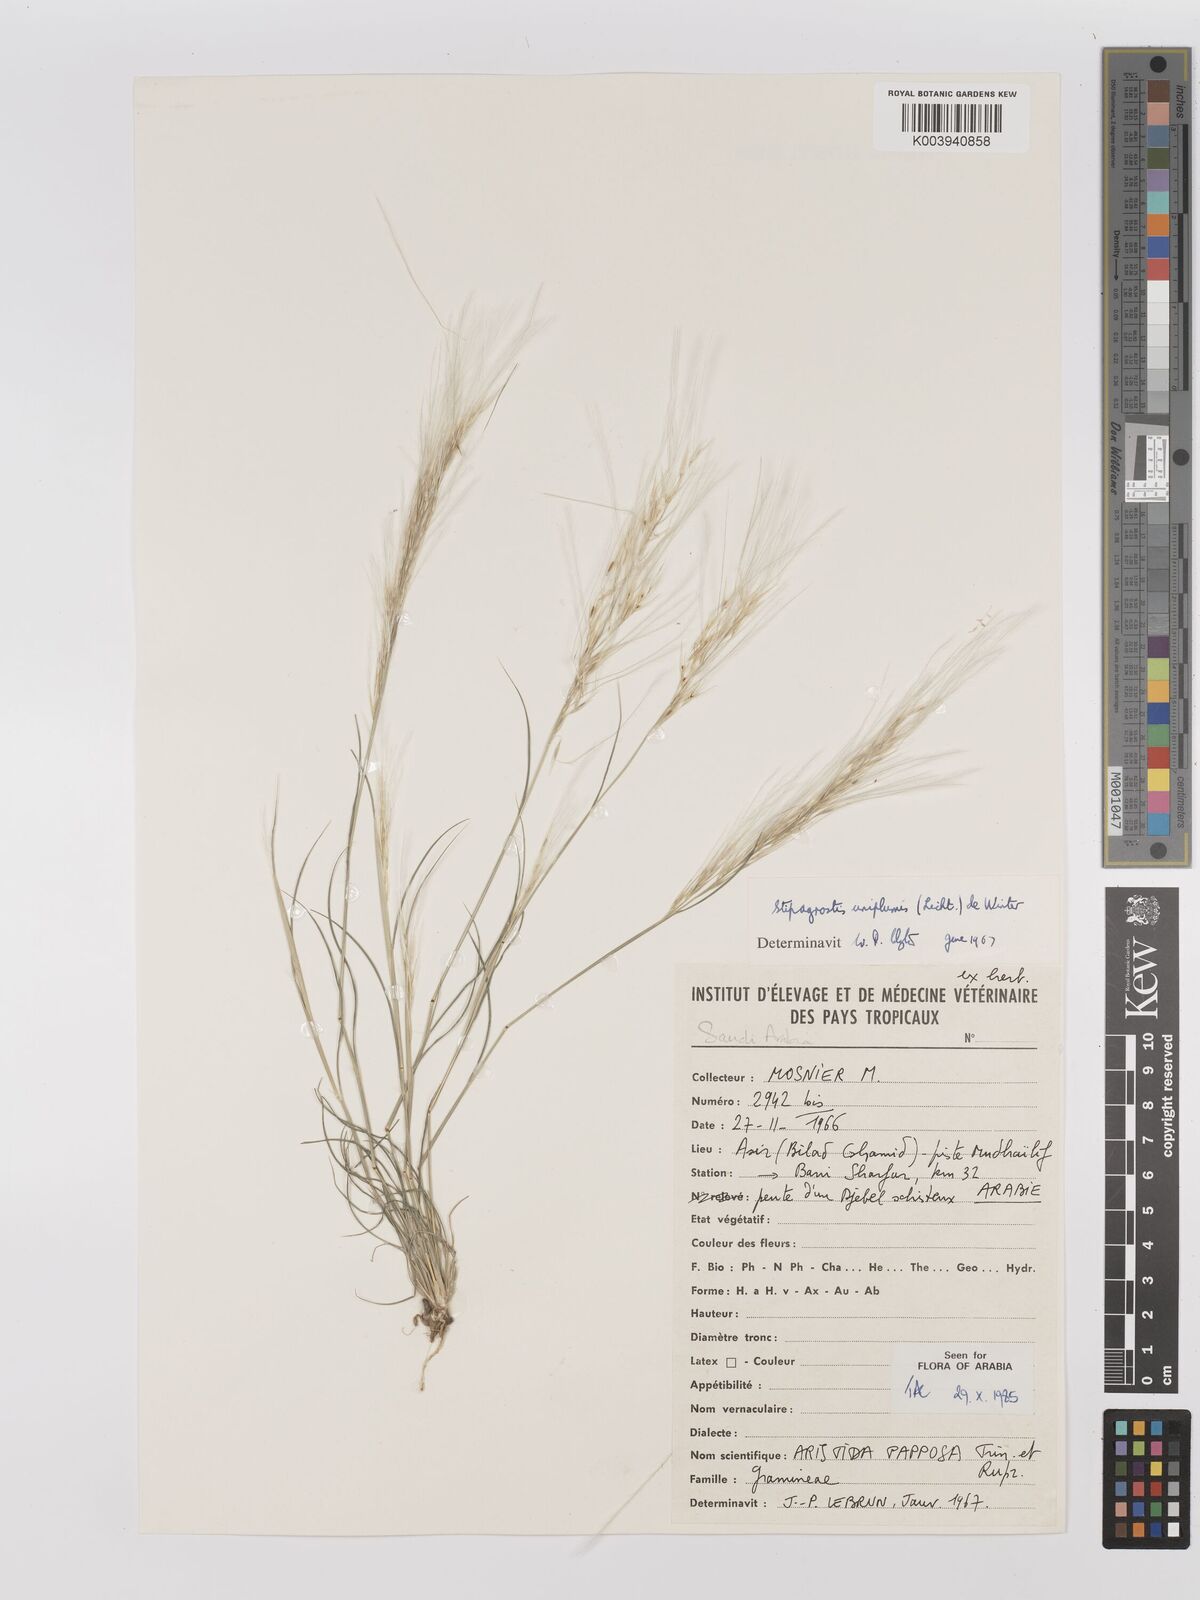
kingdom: Plantae
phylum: Tracheophyta
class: Liliopsida
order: Poales
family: Poaceae
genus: Stipagrostis
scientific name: Stipagrostis uniplumis
